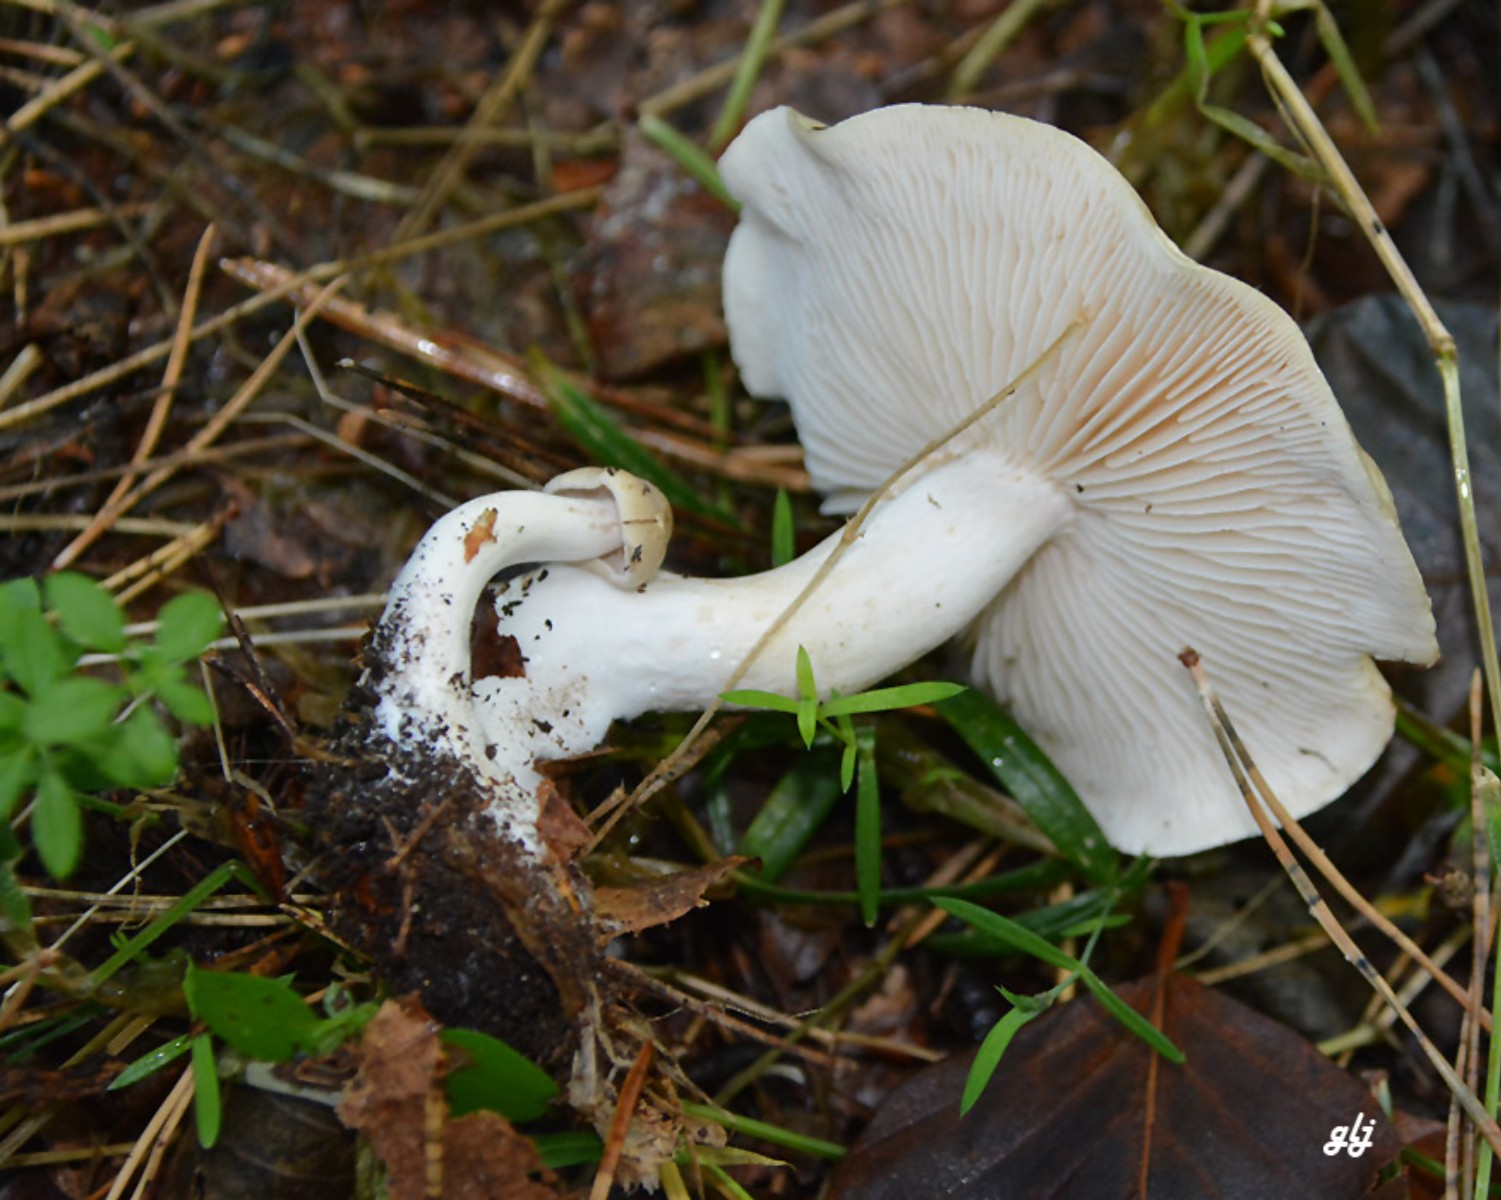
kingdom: Fungi
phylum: Basidiomycota
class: Agaricomycetes
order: Agaricales
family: Tricholomataceae
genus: Tricholoma
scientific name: Tricholoma lascivum
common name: stinkende ridderhat
